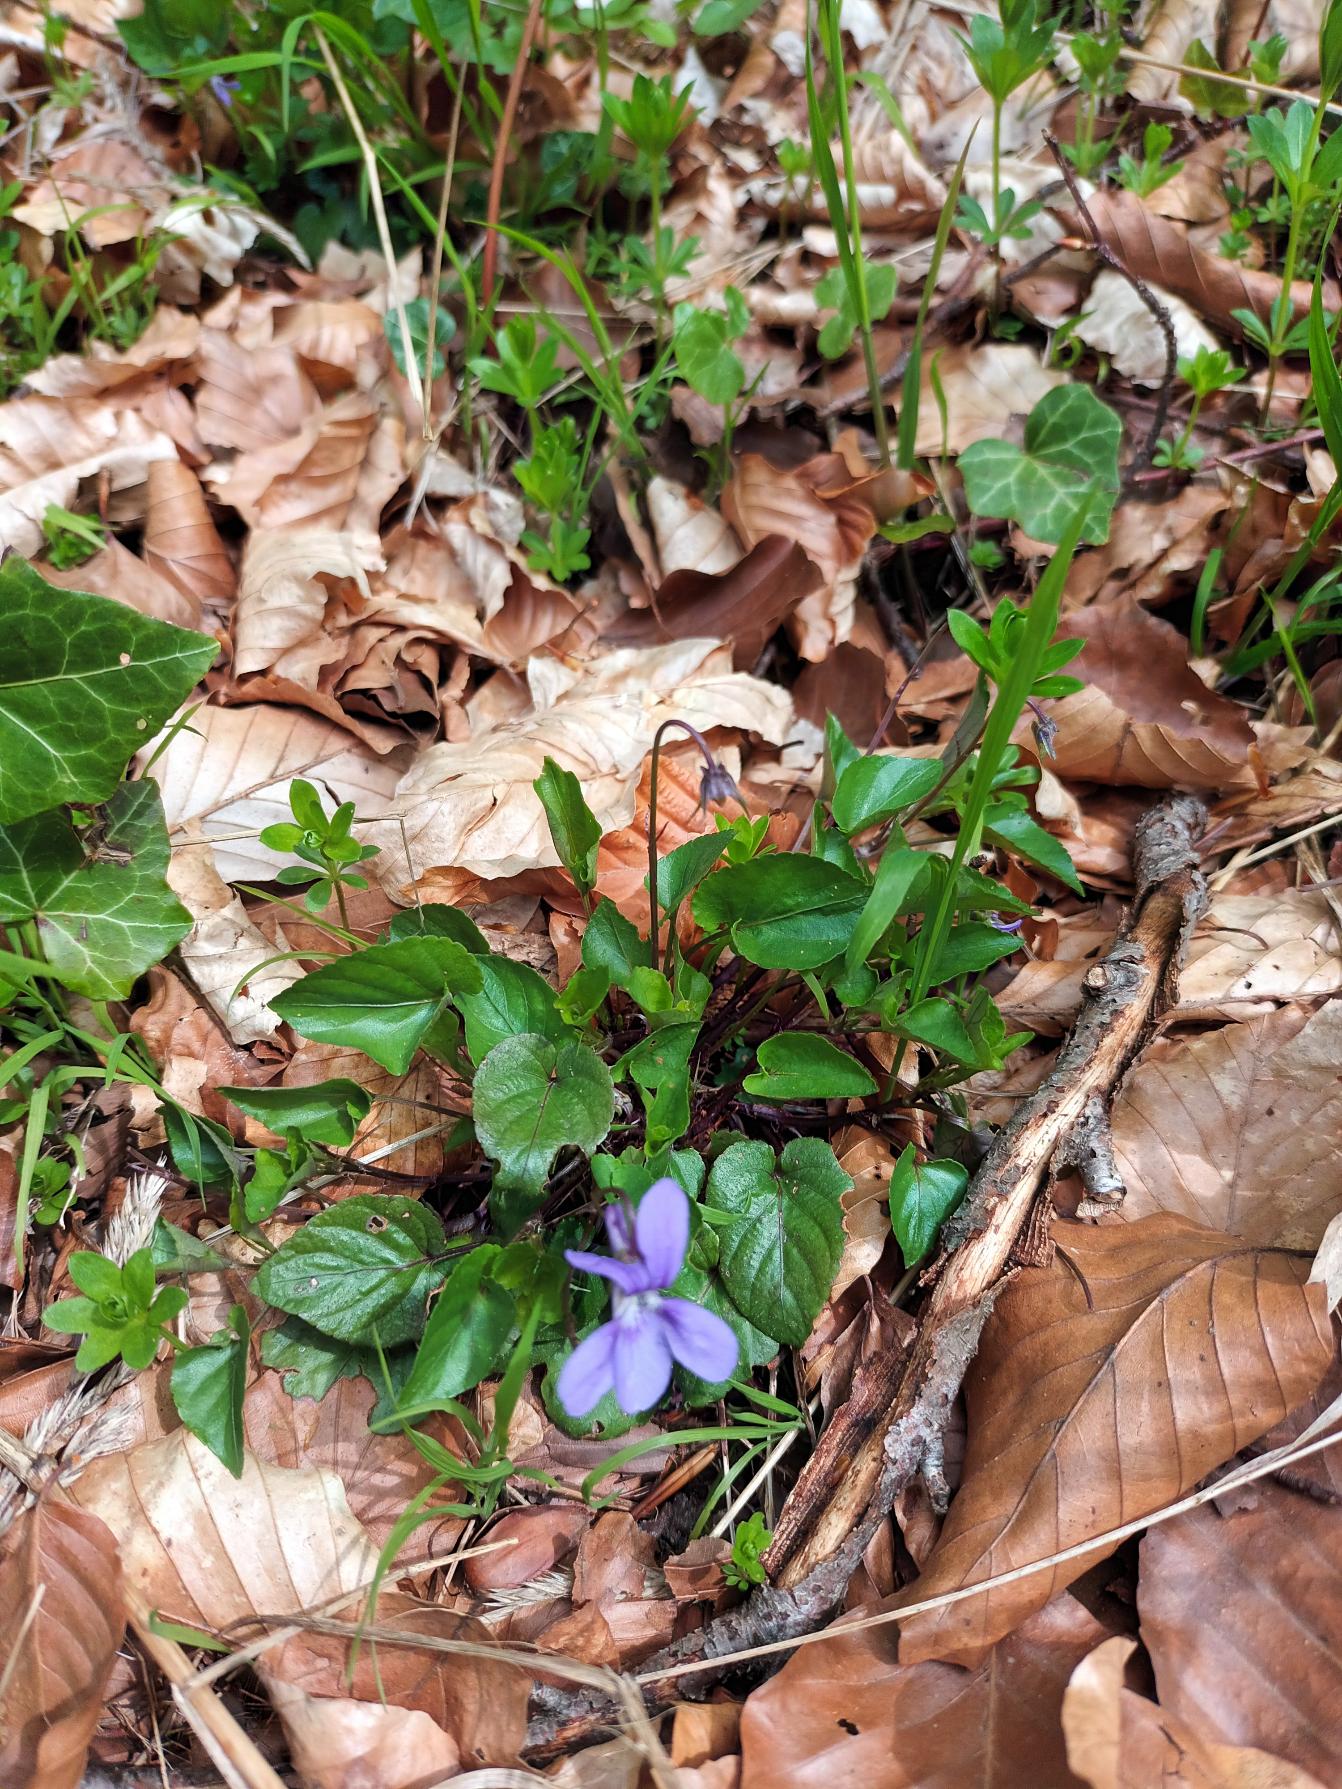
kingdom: Plantae
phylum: Tracheophyta
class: Magnoliopsida
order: Malpighiales
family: Violaceae
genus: Viola
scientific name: Viola reichenbachiana
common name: Skov-viol
